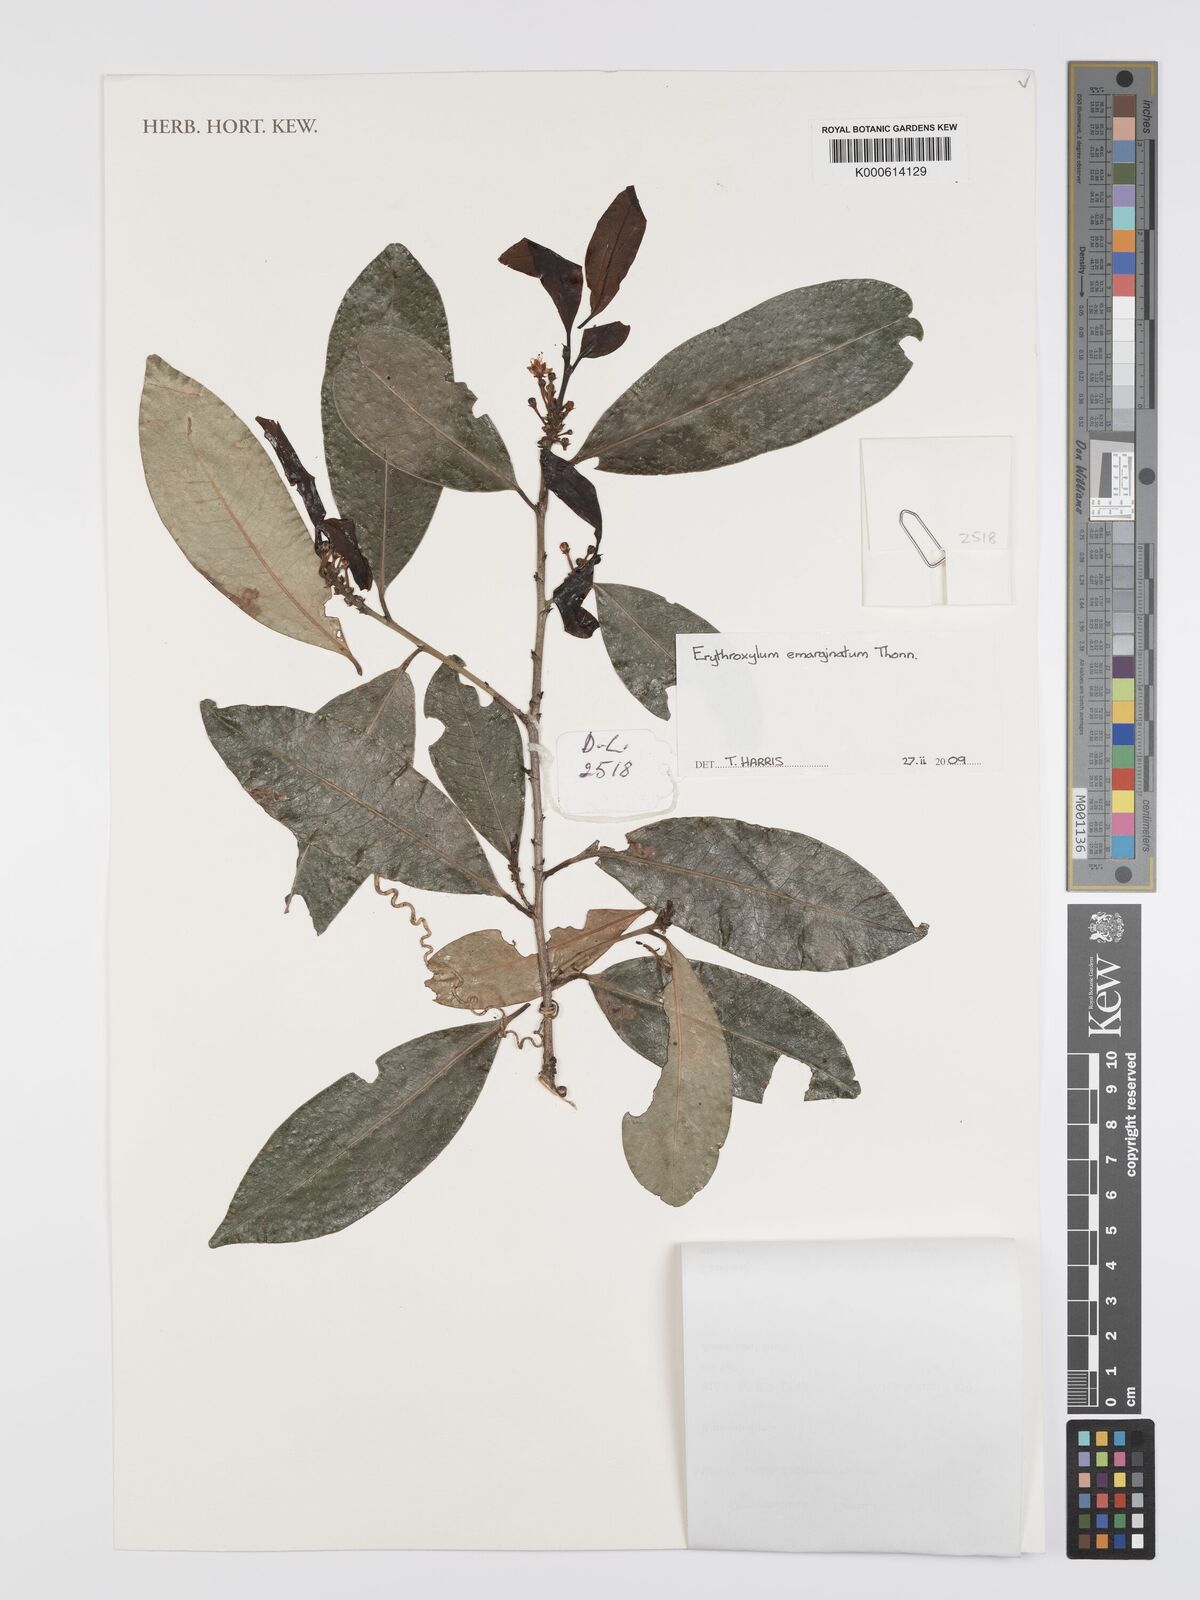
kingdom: Plantae
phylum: Tracheophyta
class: Magnoliopsida
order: Malpighiales
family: Erythroxylaceae
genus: Erythroxylum
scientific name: Erythroxylum emarginatum
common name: African coca-tree
